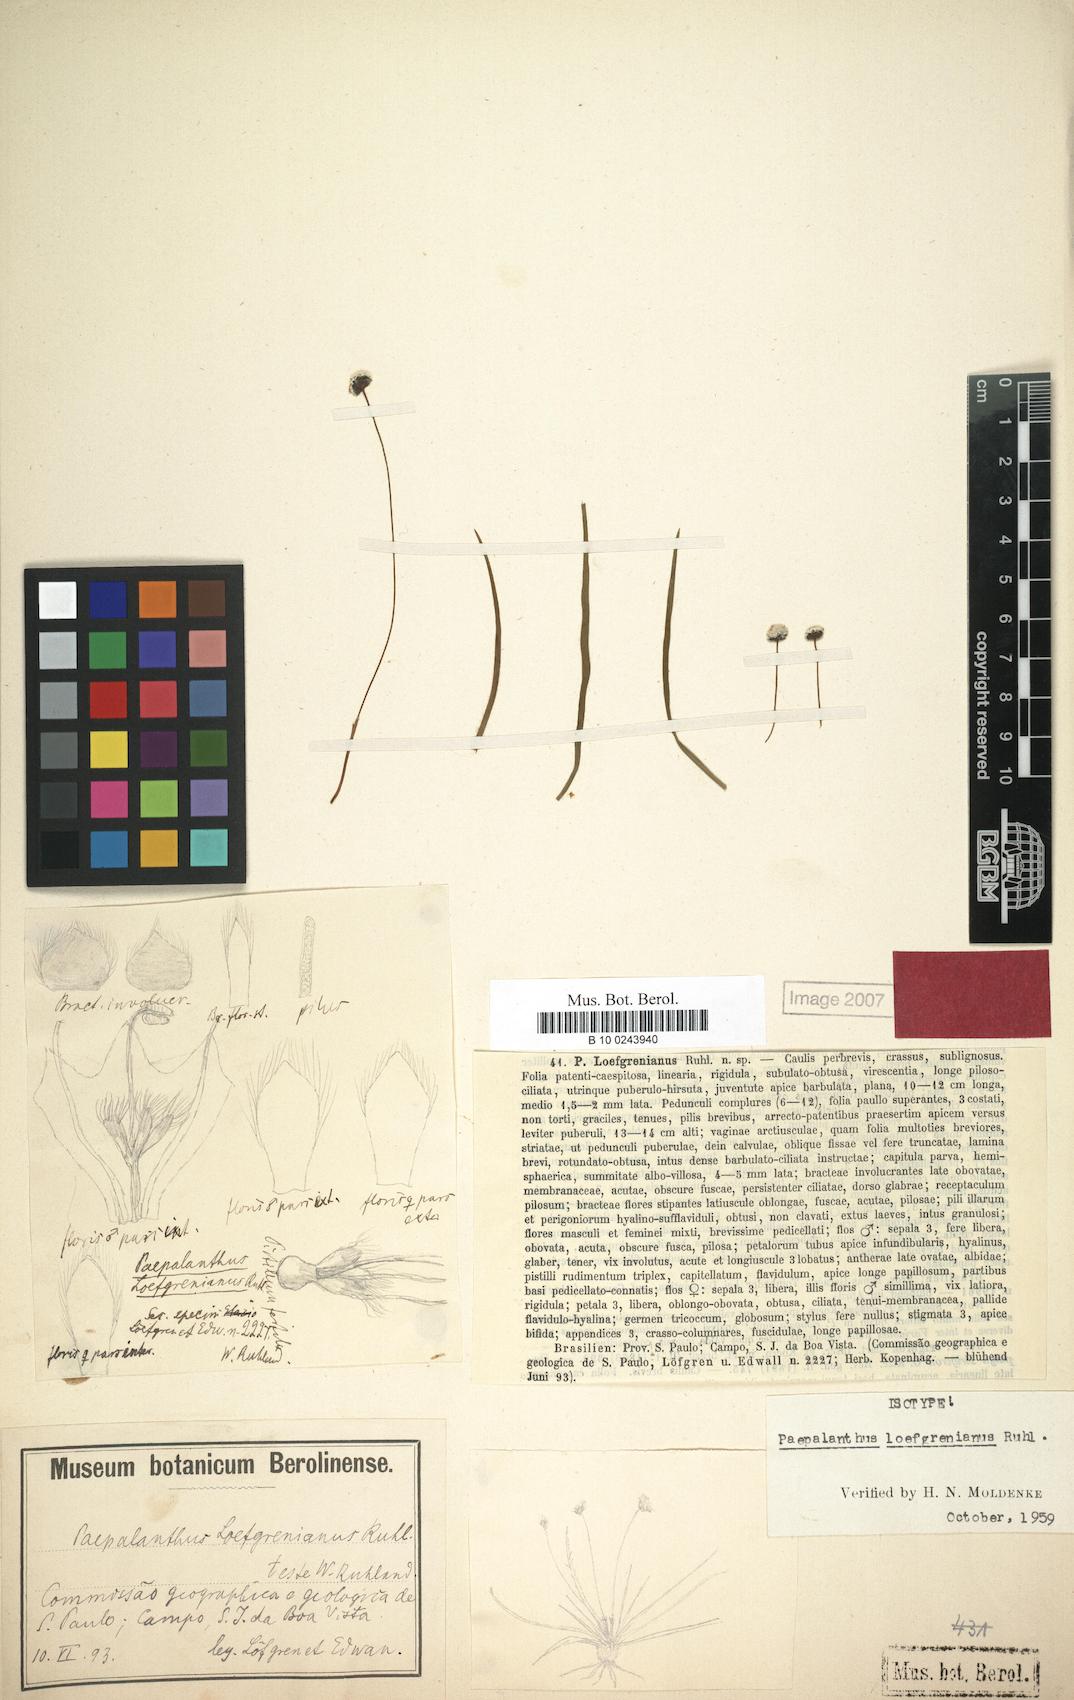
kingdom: Plantae
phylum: Tracheophyta
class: Liliopsida
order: Poales
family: Eriocaulaceae
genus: Paepalanthus
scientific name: Paepalanthus aequalis
